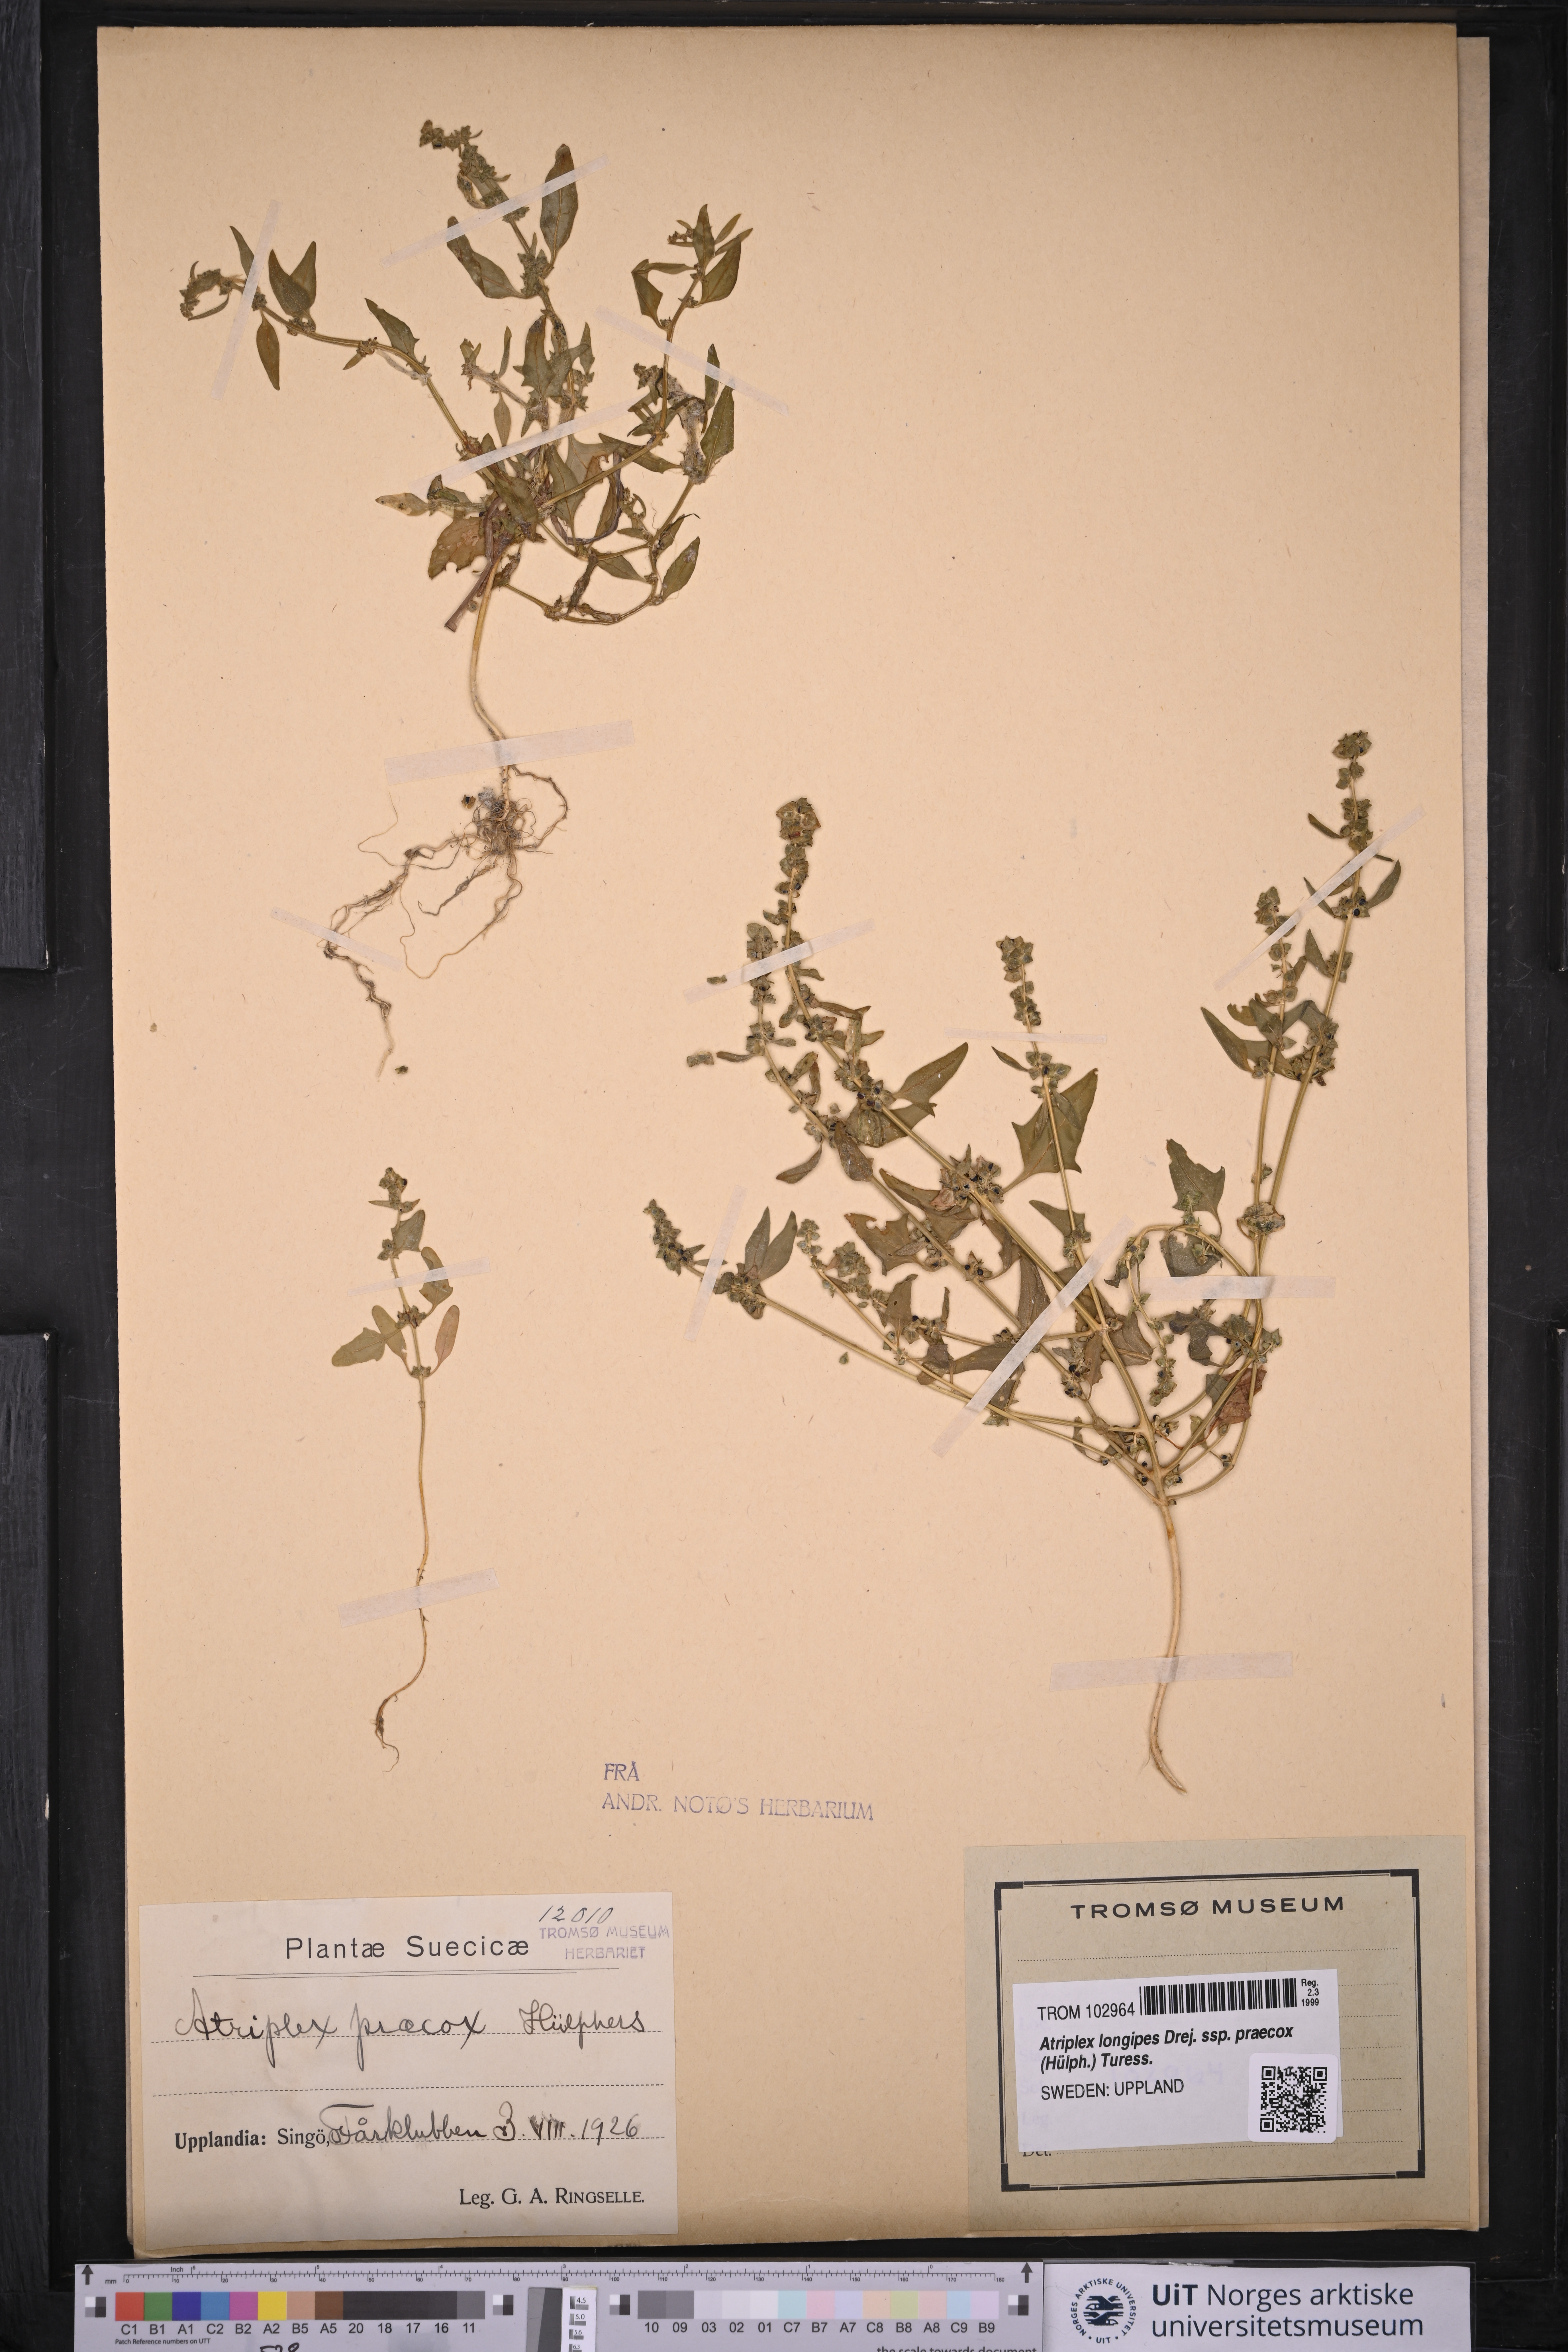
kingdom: Plantae
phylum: Tracheophyta
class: Magnoliopsida
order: Caryophyllales
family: Amaranthaceae
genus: Atriplex
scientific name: Atriplex praecox
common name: Early orache
